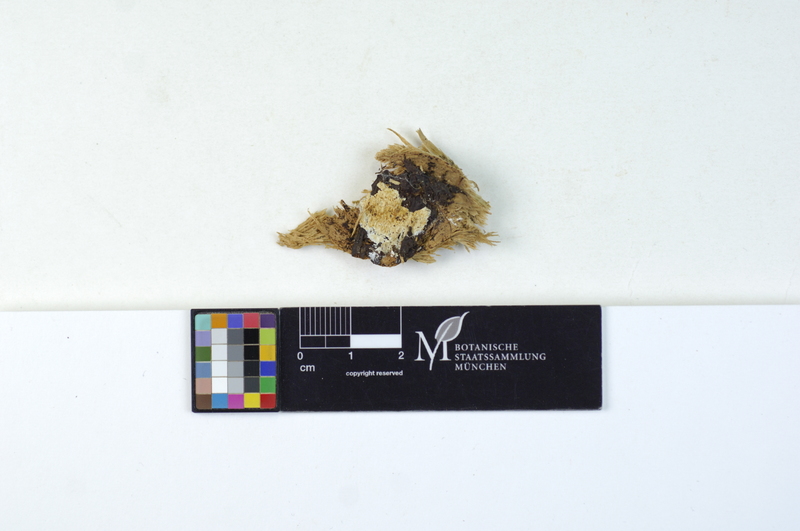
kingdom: Fungi
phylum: Basidiomycota
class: Agaricomycetes
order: Polyporales
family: Dacryobolaceae
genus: Oligoporus
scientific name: Oligoporus rennyi
